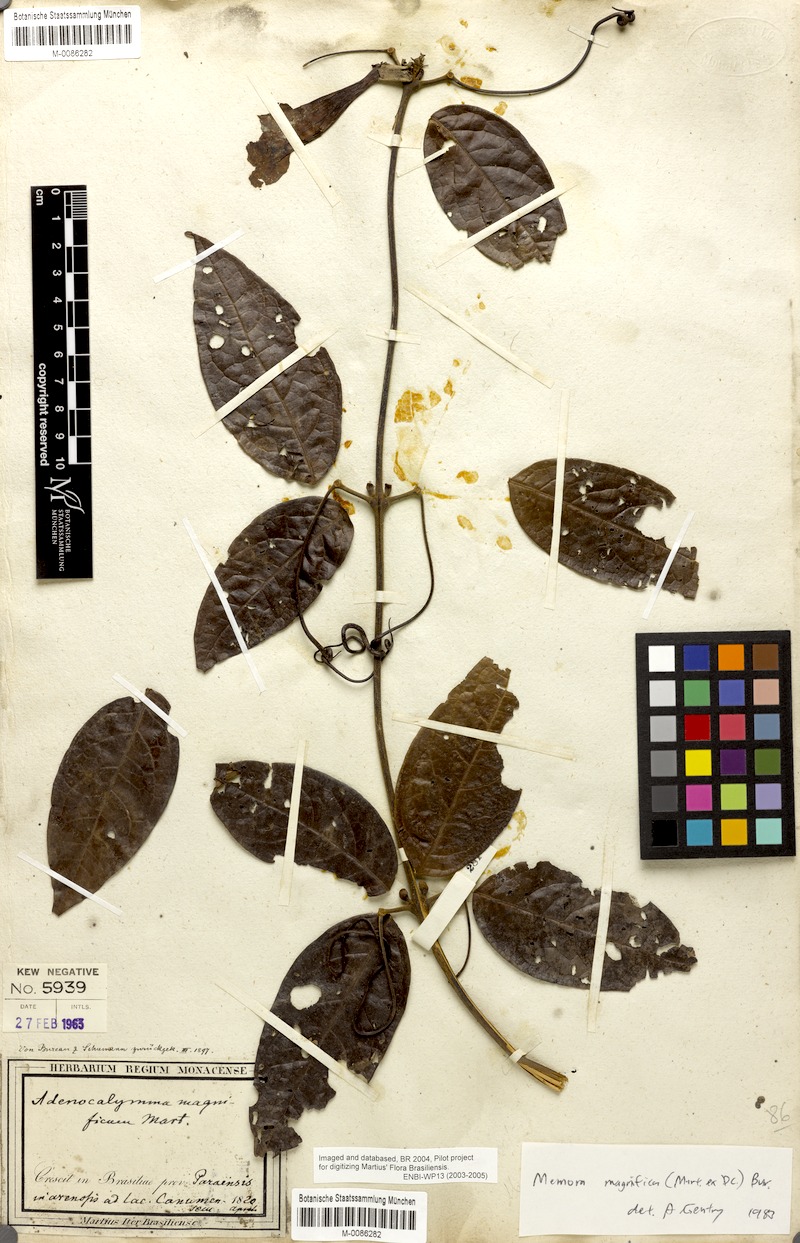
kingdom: Plantae
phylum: Tracheophyta
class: Magnoliopsida
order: Lamiales
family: Bignoniaceae
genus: Adenocalymma
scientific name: Adenocalymma magnificum
